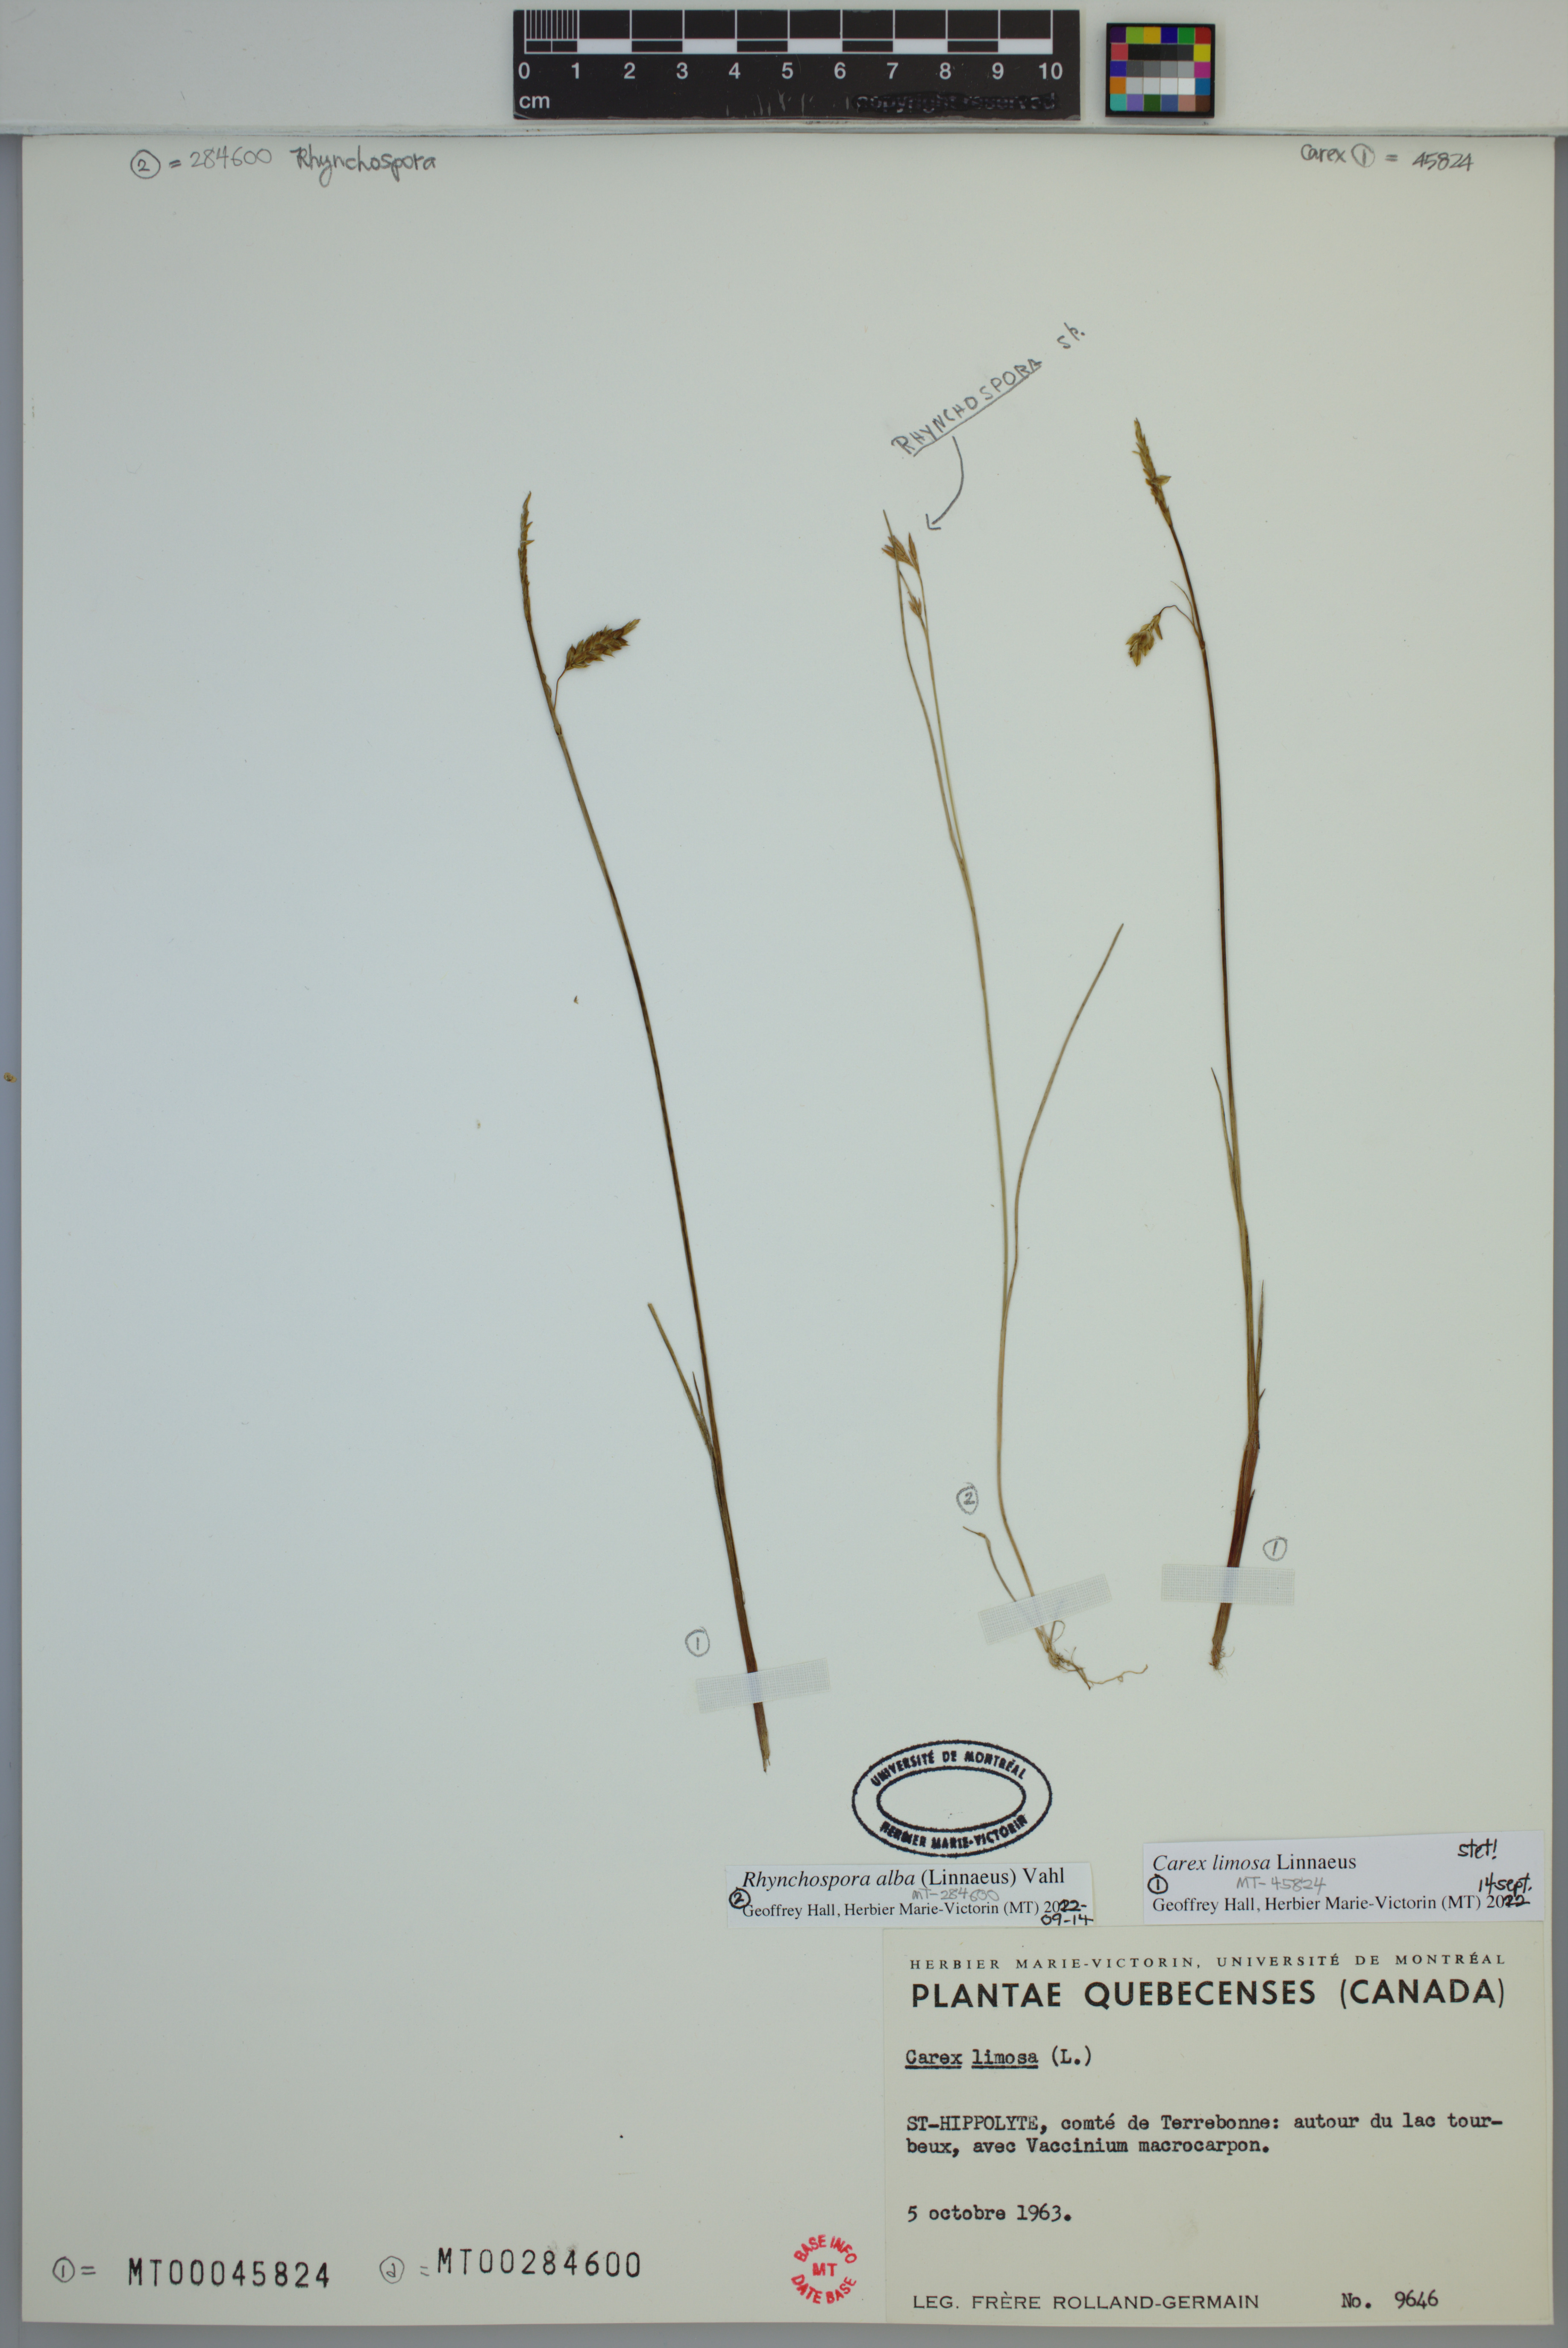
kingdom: Plantae
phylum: Tracheophyta
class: Liliopsida
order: Poales
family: Cyperaceae
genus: Rhynchospora
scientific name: Rhynchospora alba
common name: White beak-sedge
